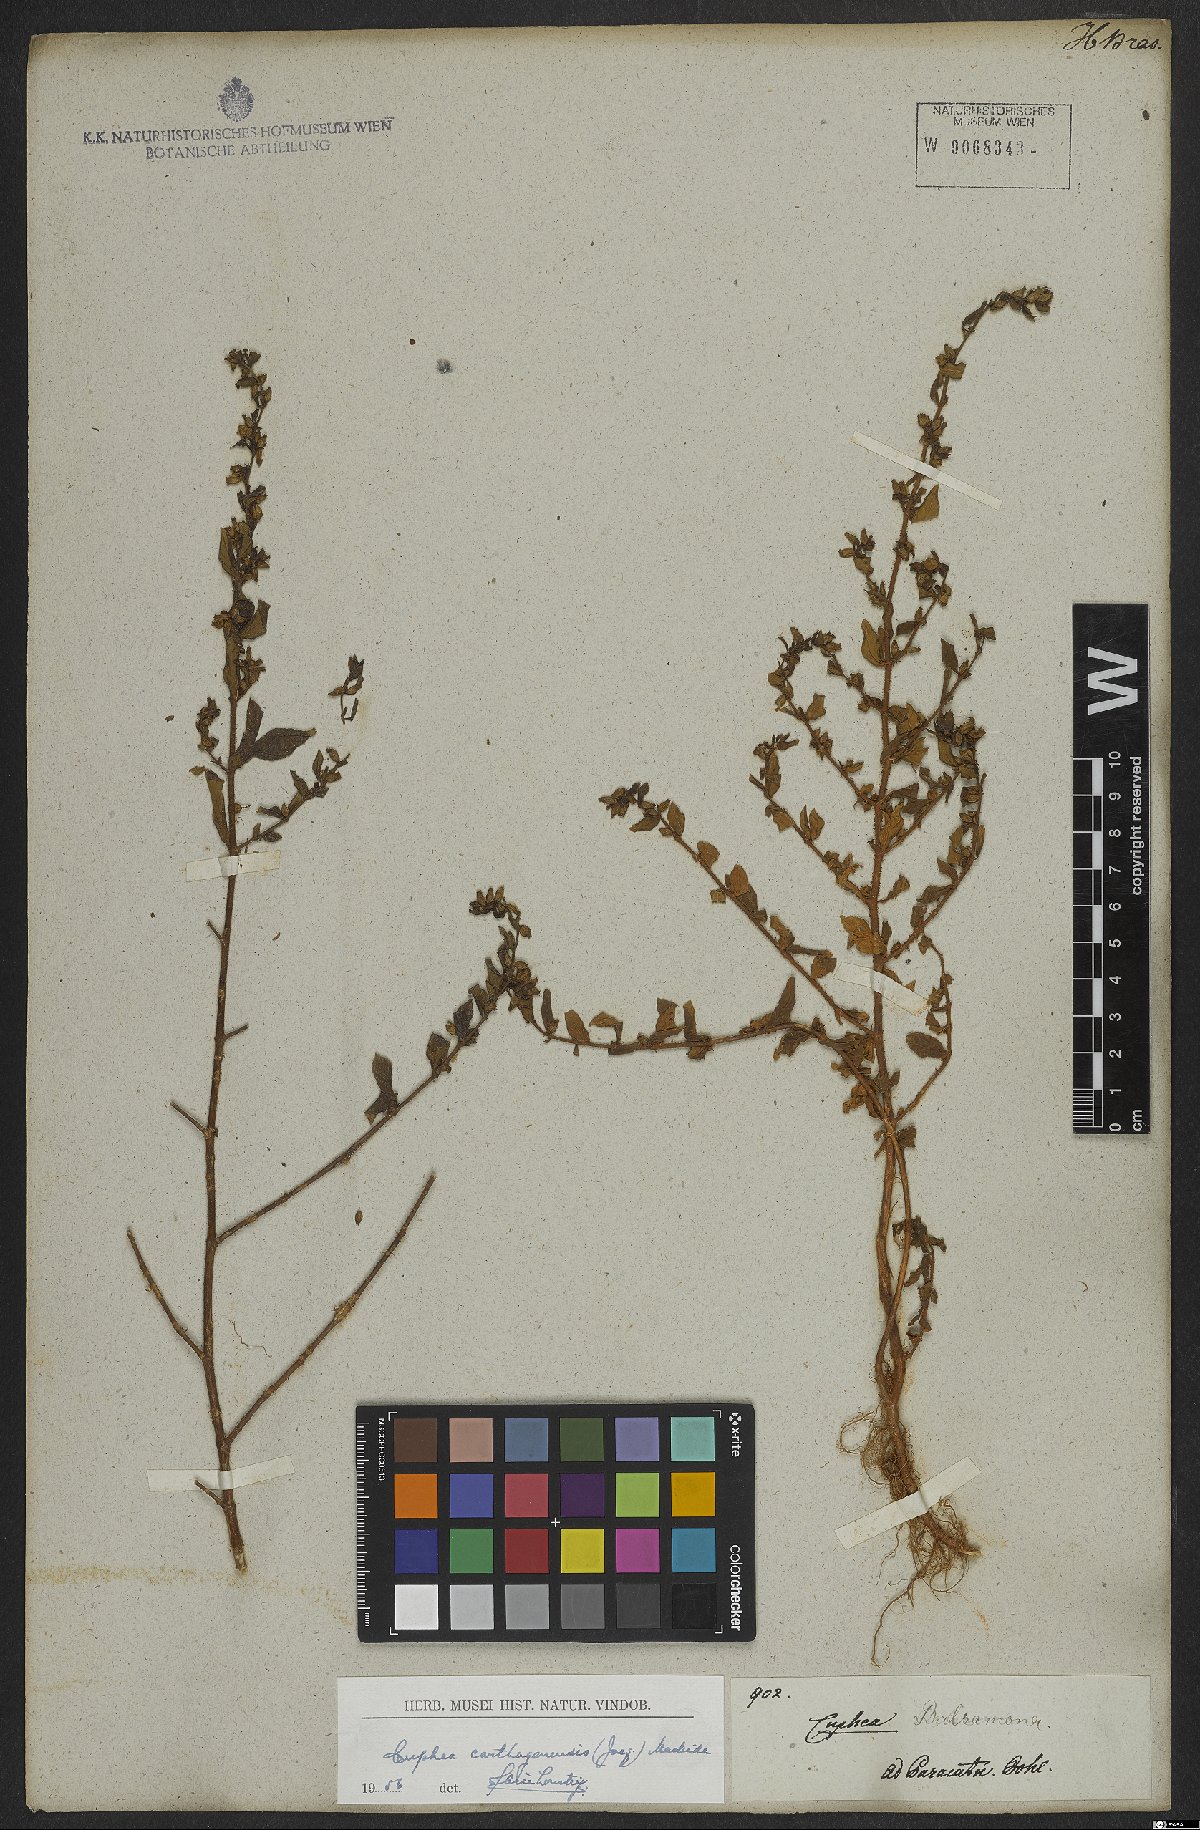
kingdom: Plantae
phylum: Tracheophyta
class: Magnoliopsida
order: Myrtales
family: Lythraceae
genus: Cuphea
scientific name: Cuphea carthagenensis
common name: Colombian waxweed
